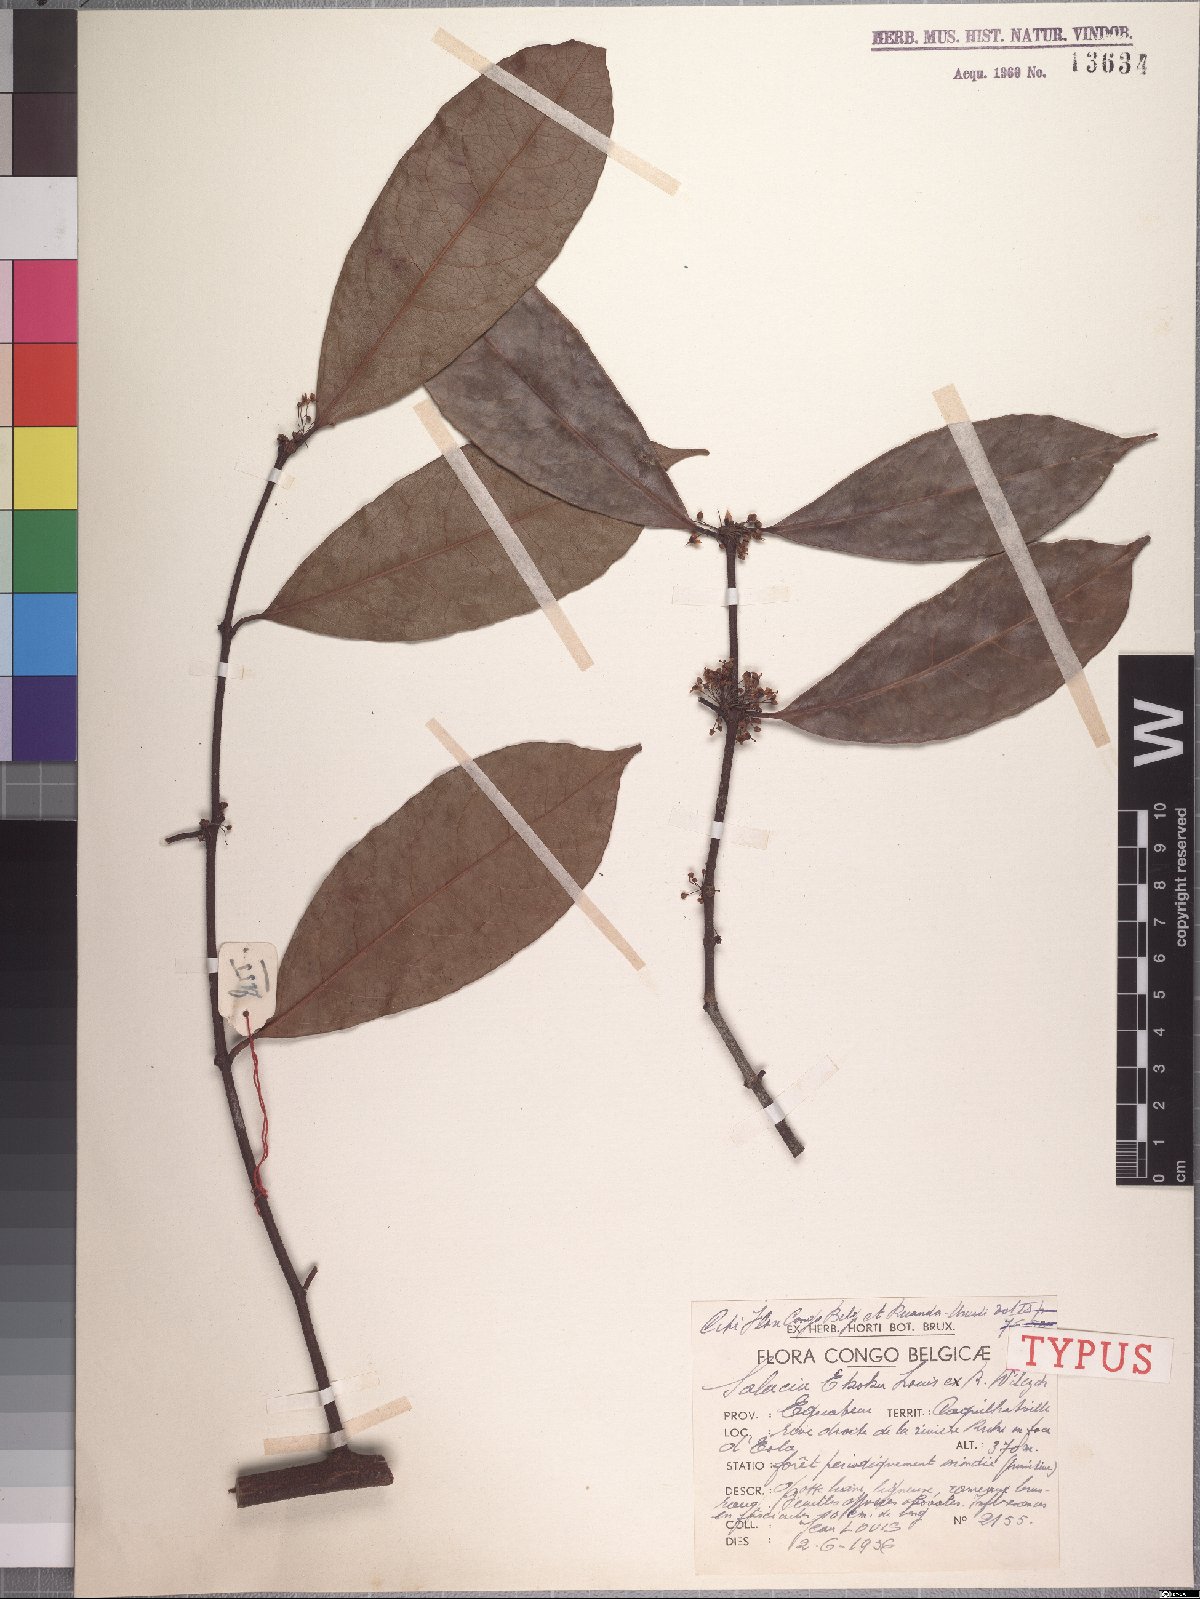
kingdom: Plantae
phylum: Tracheophyta
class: Magnoliopsida
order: Celastrales
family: Celastraceae
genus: Salacia
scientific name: Salacia ekoka
